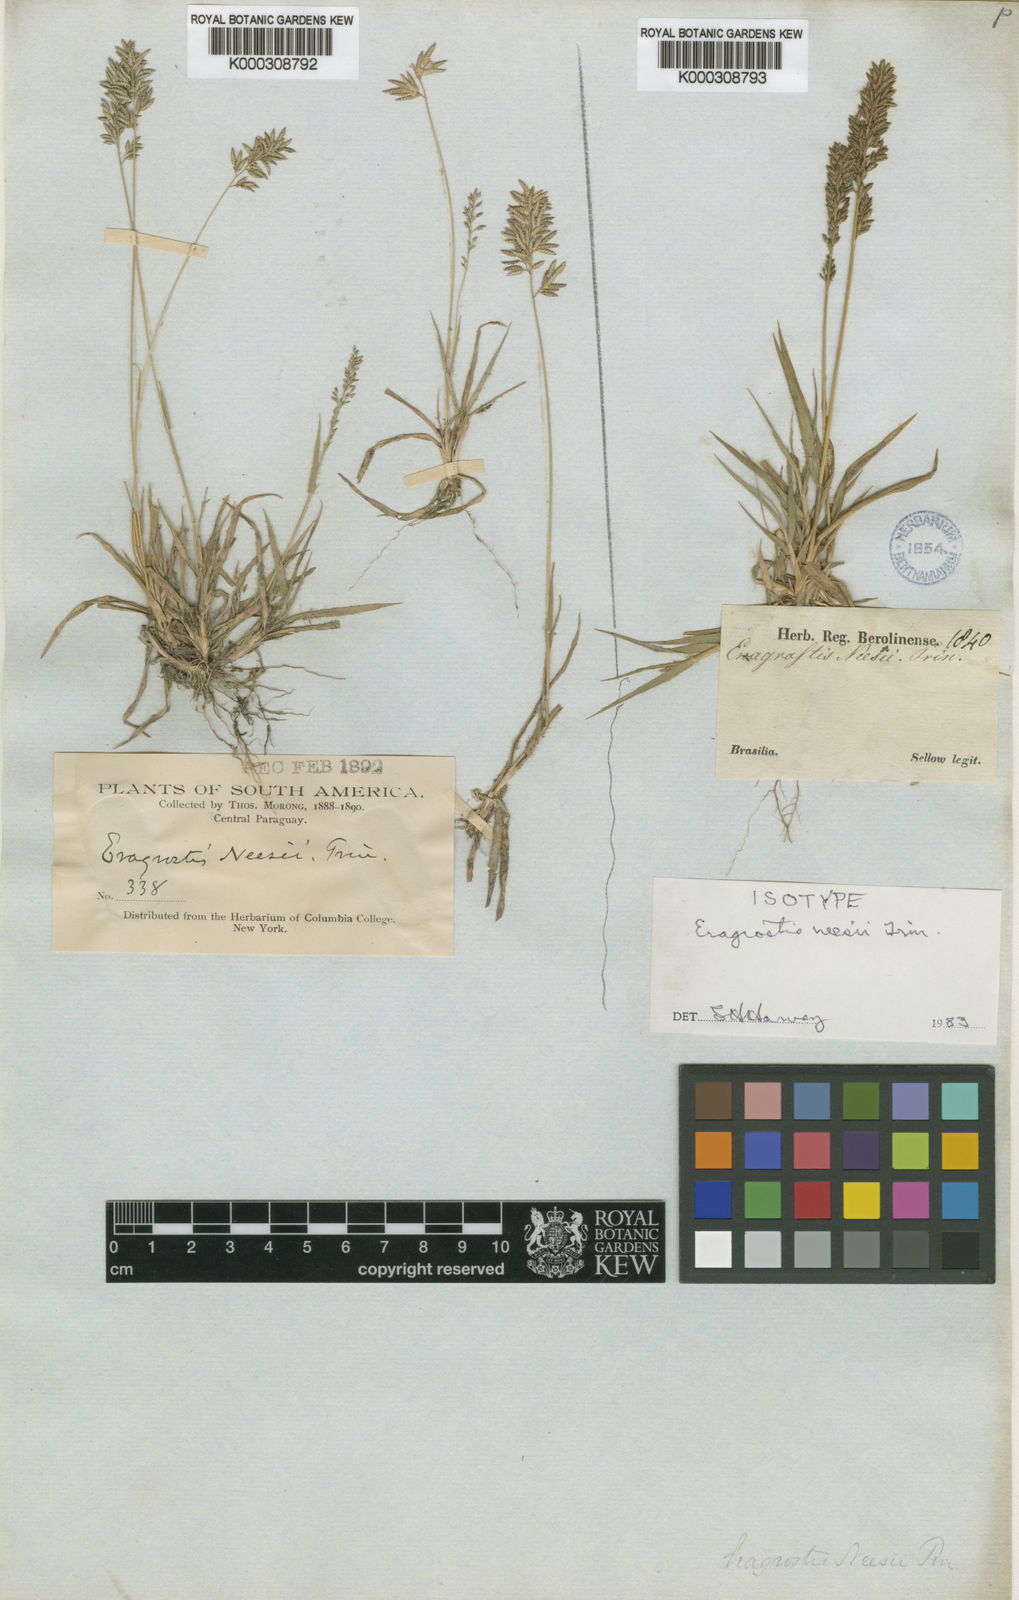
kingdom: Plantae
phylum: Tracheophyta
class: Liliopsida
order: Poales
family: Poaceae
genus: Eragrostis
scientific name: Eragrostis neesii
